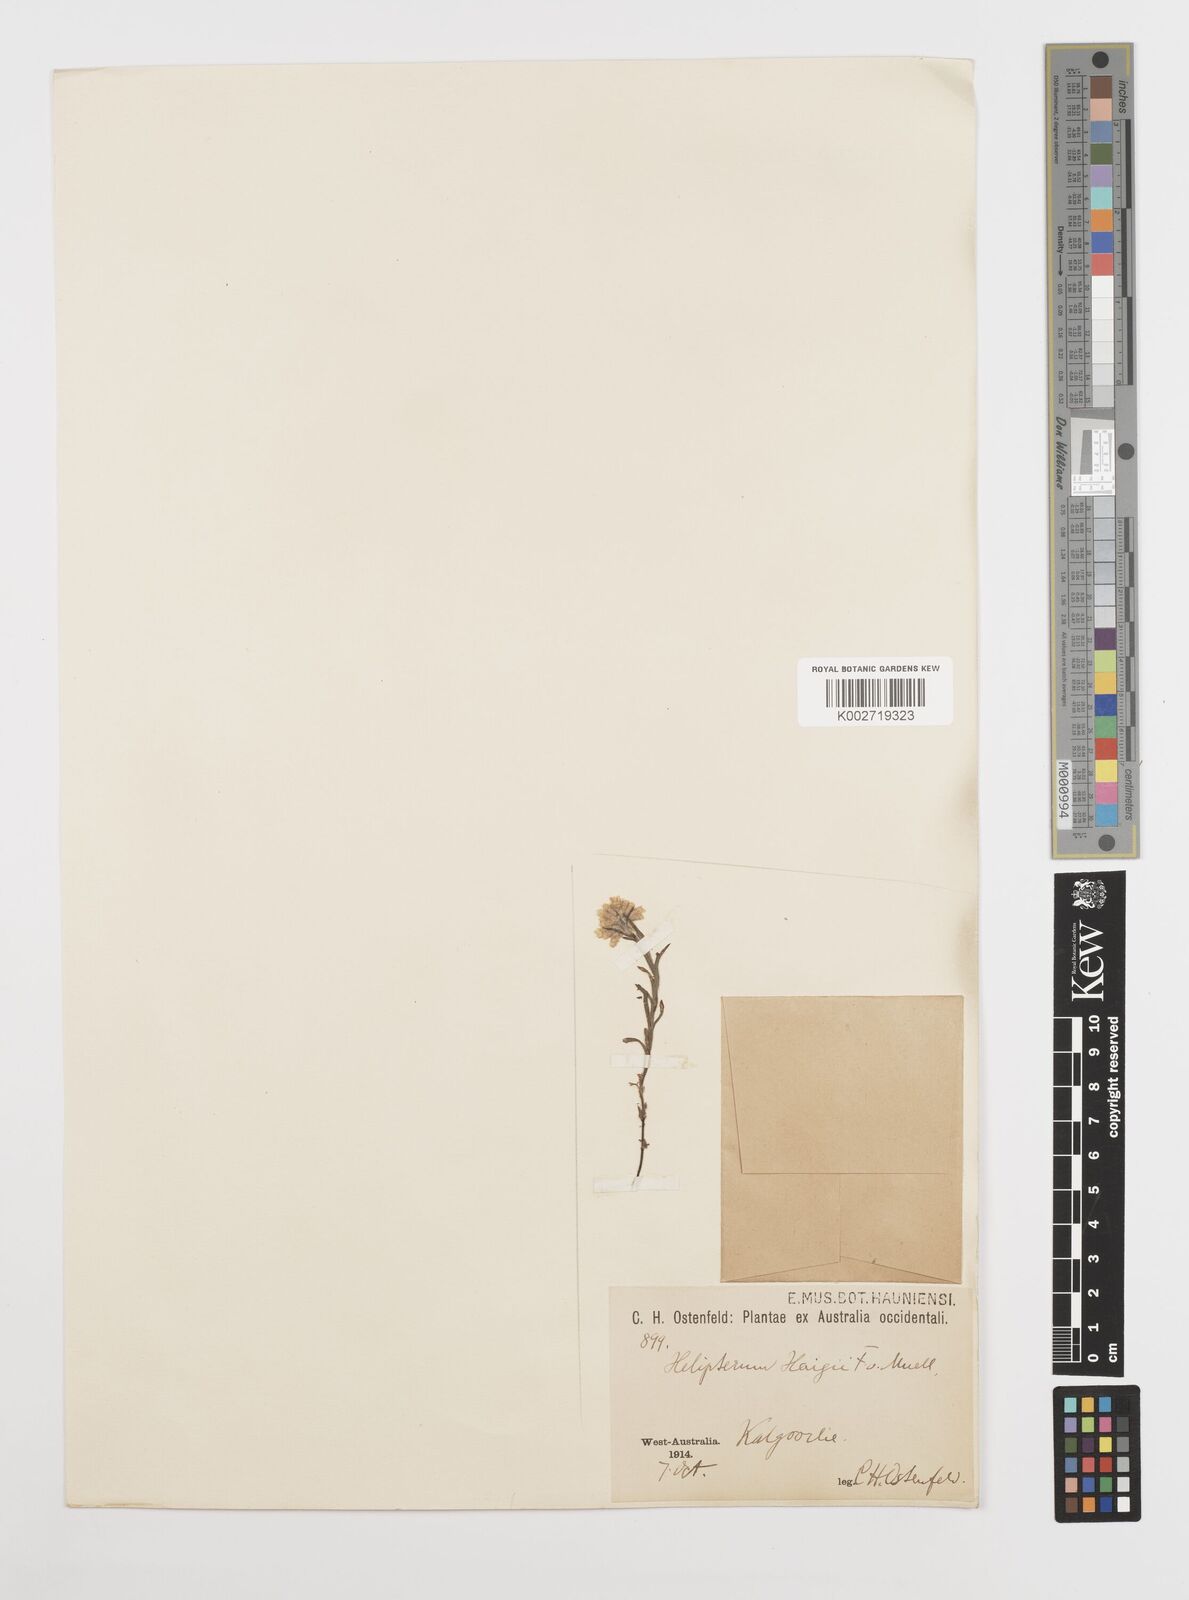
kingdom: Plantae
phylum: Tracheophyta
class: Magnoliopsida
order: Asterales
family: Asteraceae
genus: Rhodanthe
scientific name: Rhodanthe haigii
